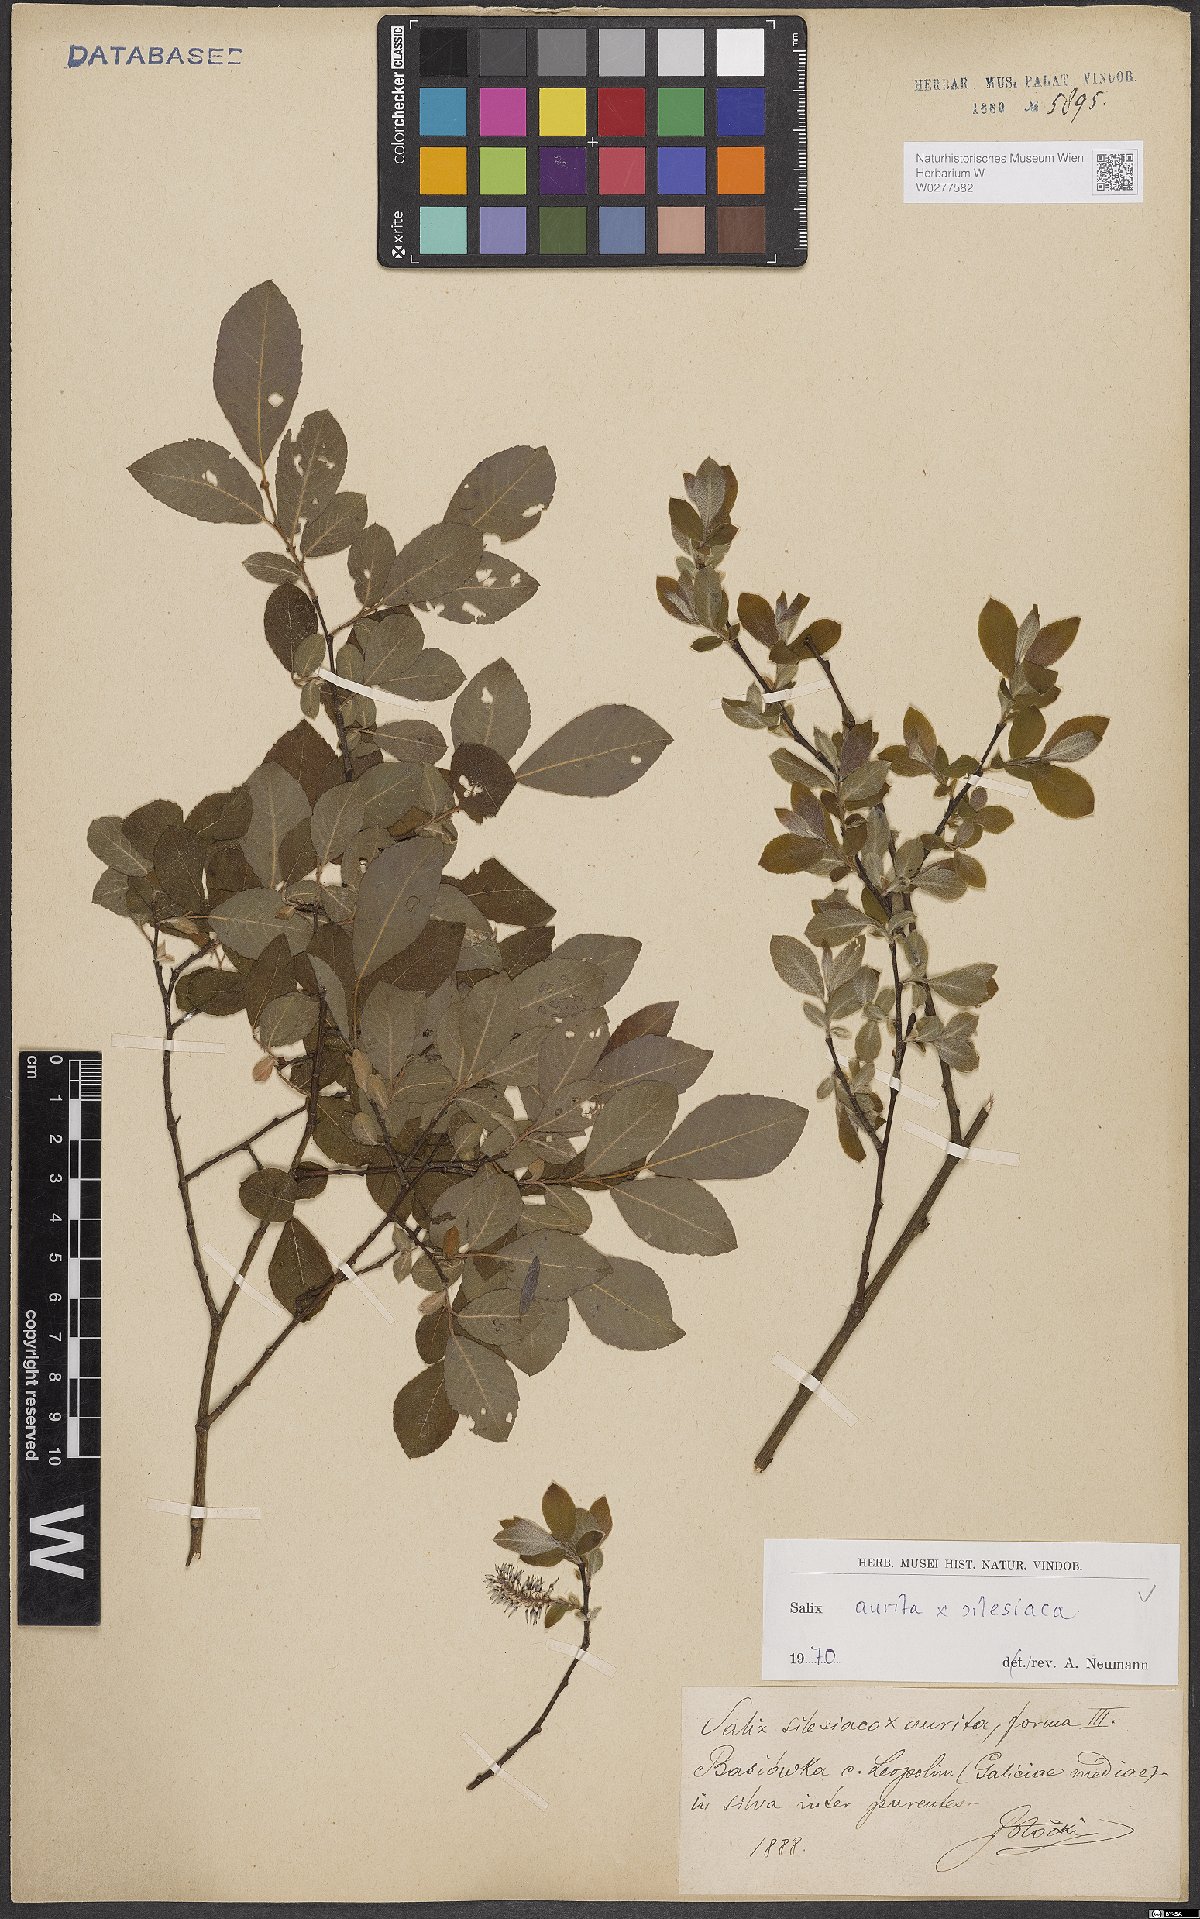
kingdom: Plantae
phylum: Tracheophyta
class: Magnoliopsida
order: Malpighiales
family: Salicaceae
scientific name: Salicaceae
